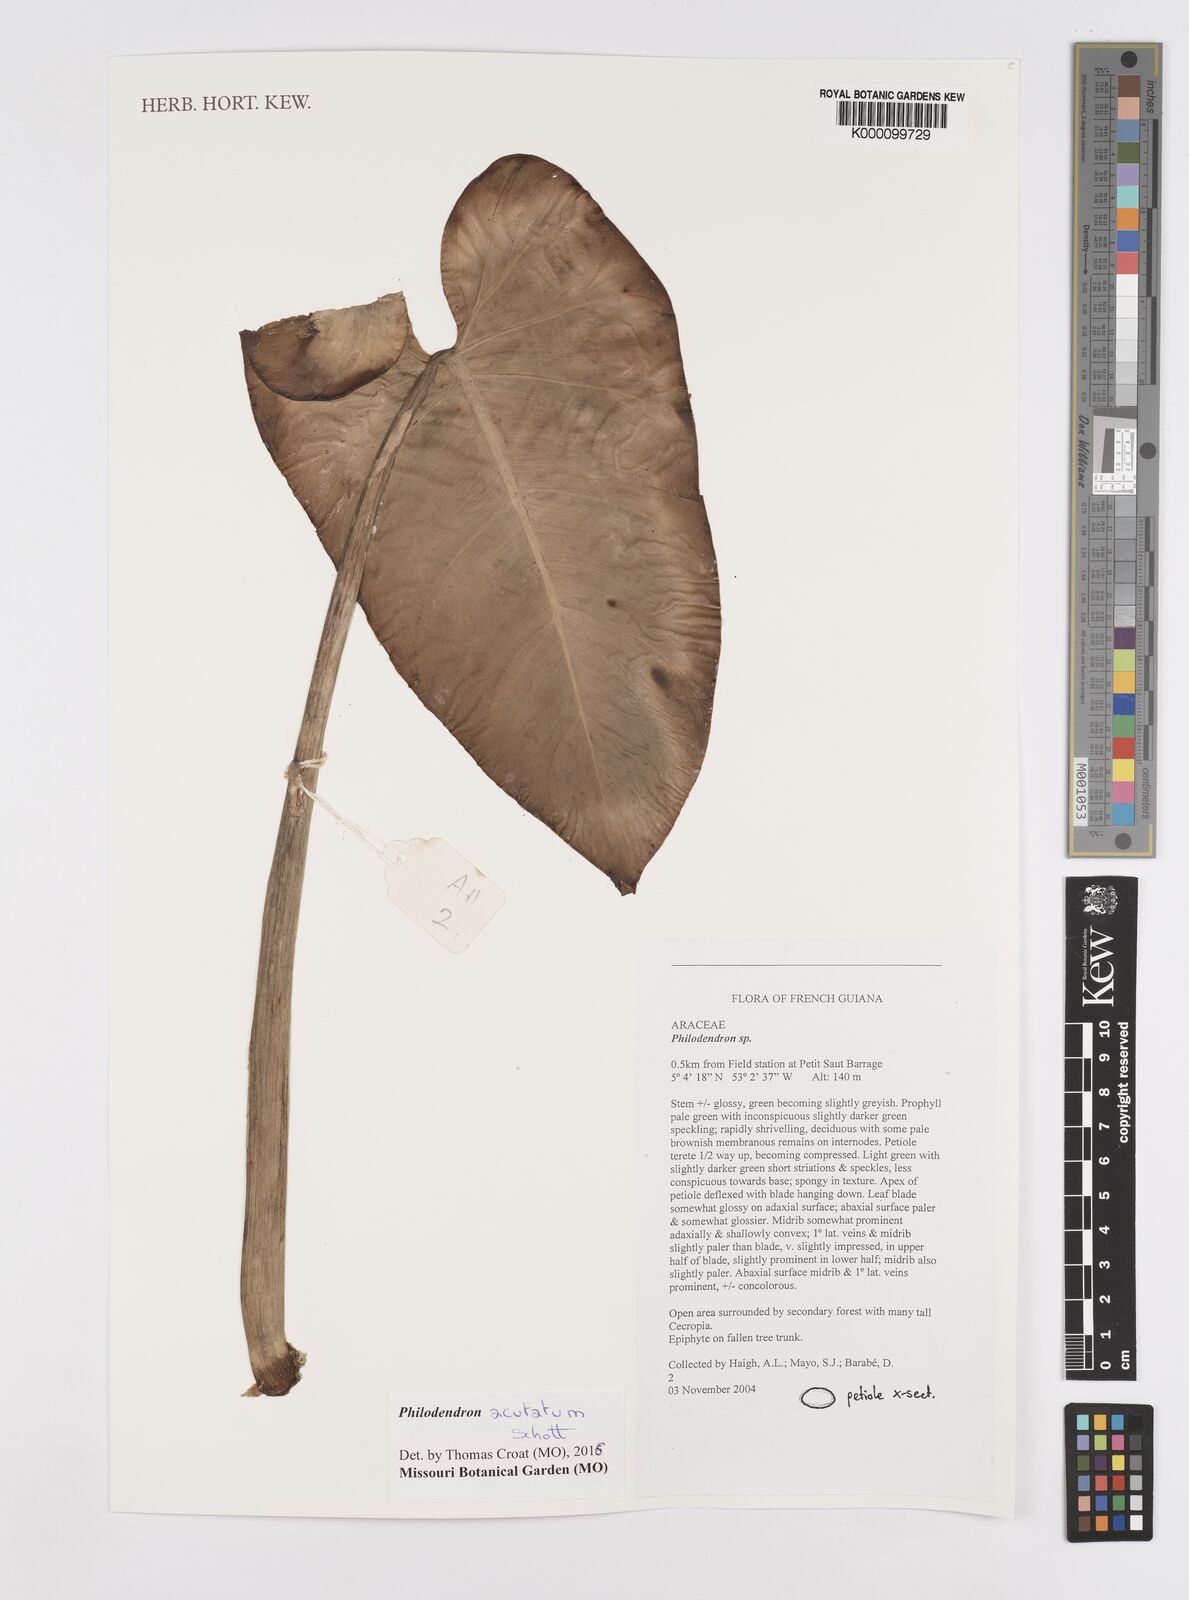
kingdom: Plantae
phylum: Tracheophyta
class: Liliopsida
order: Alismatales
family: Araceae
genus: Philodendron
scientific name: Philodendron quinquenervium
